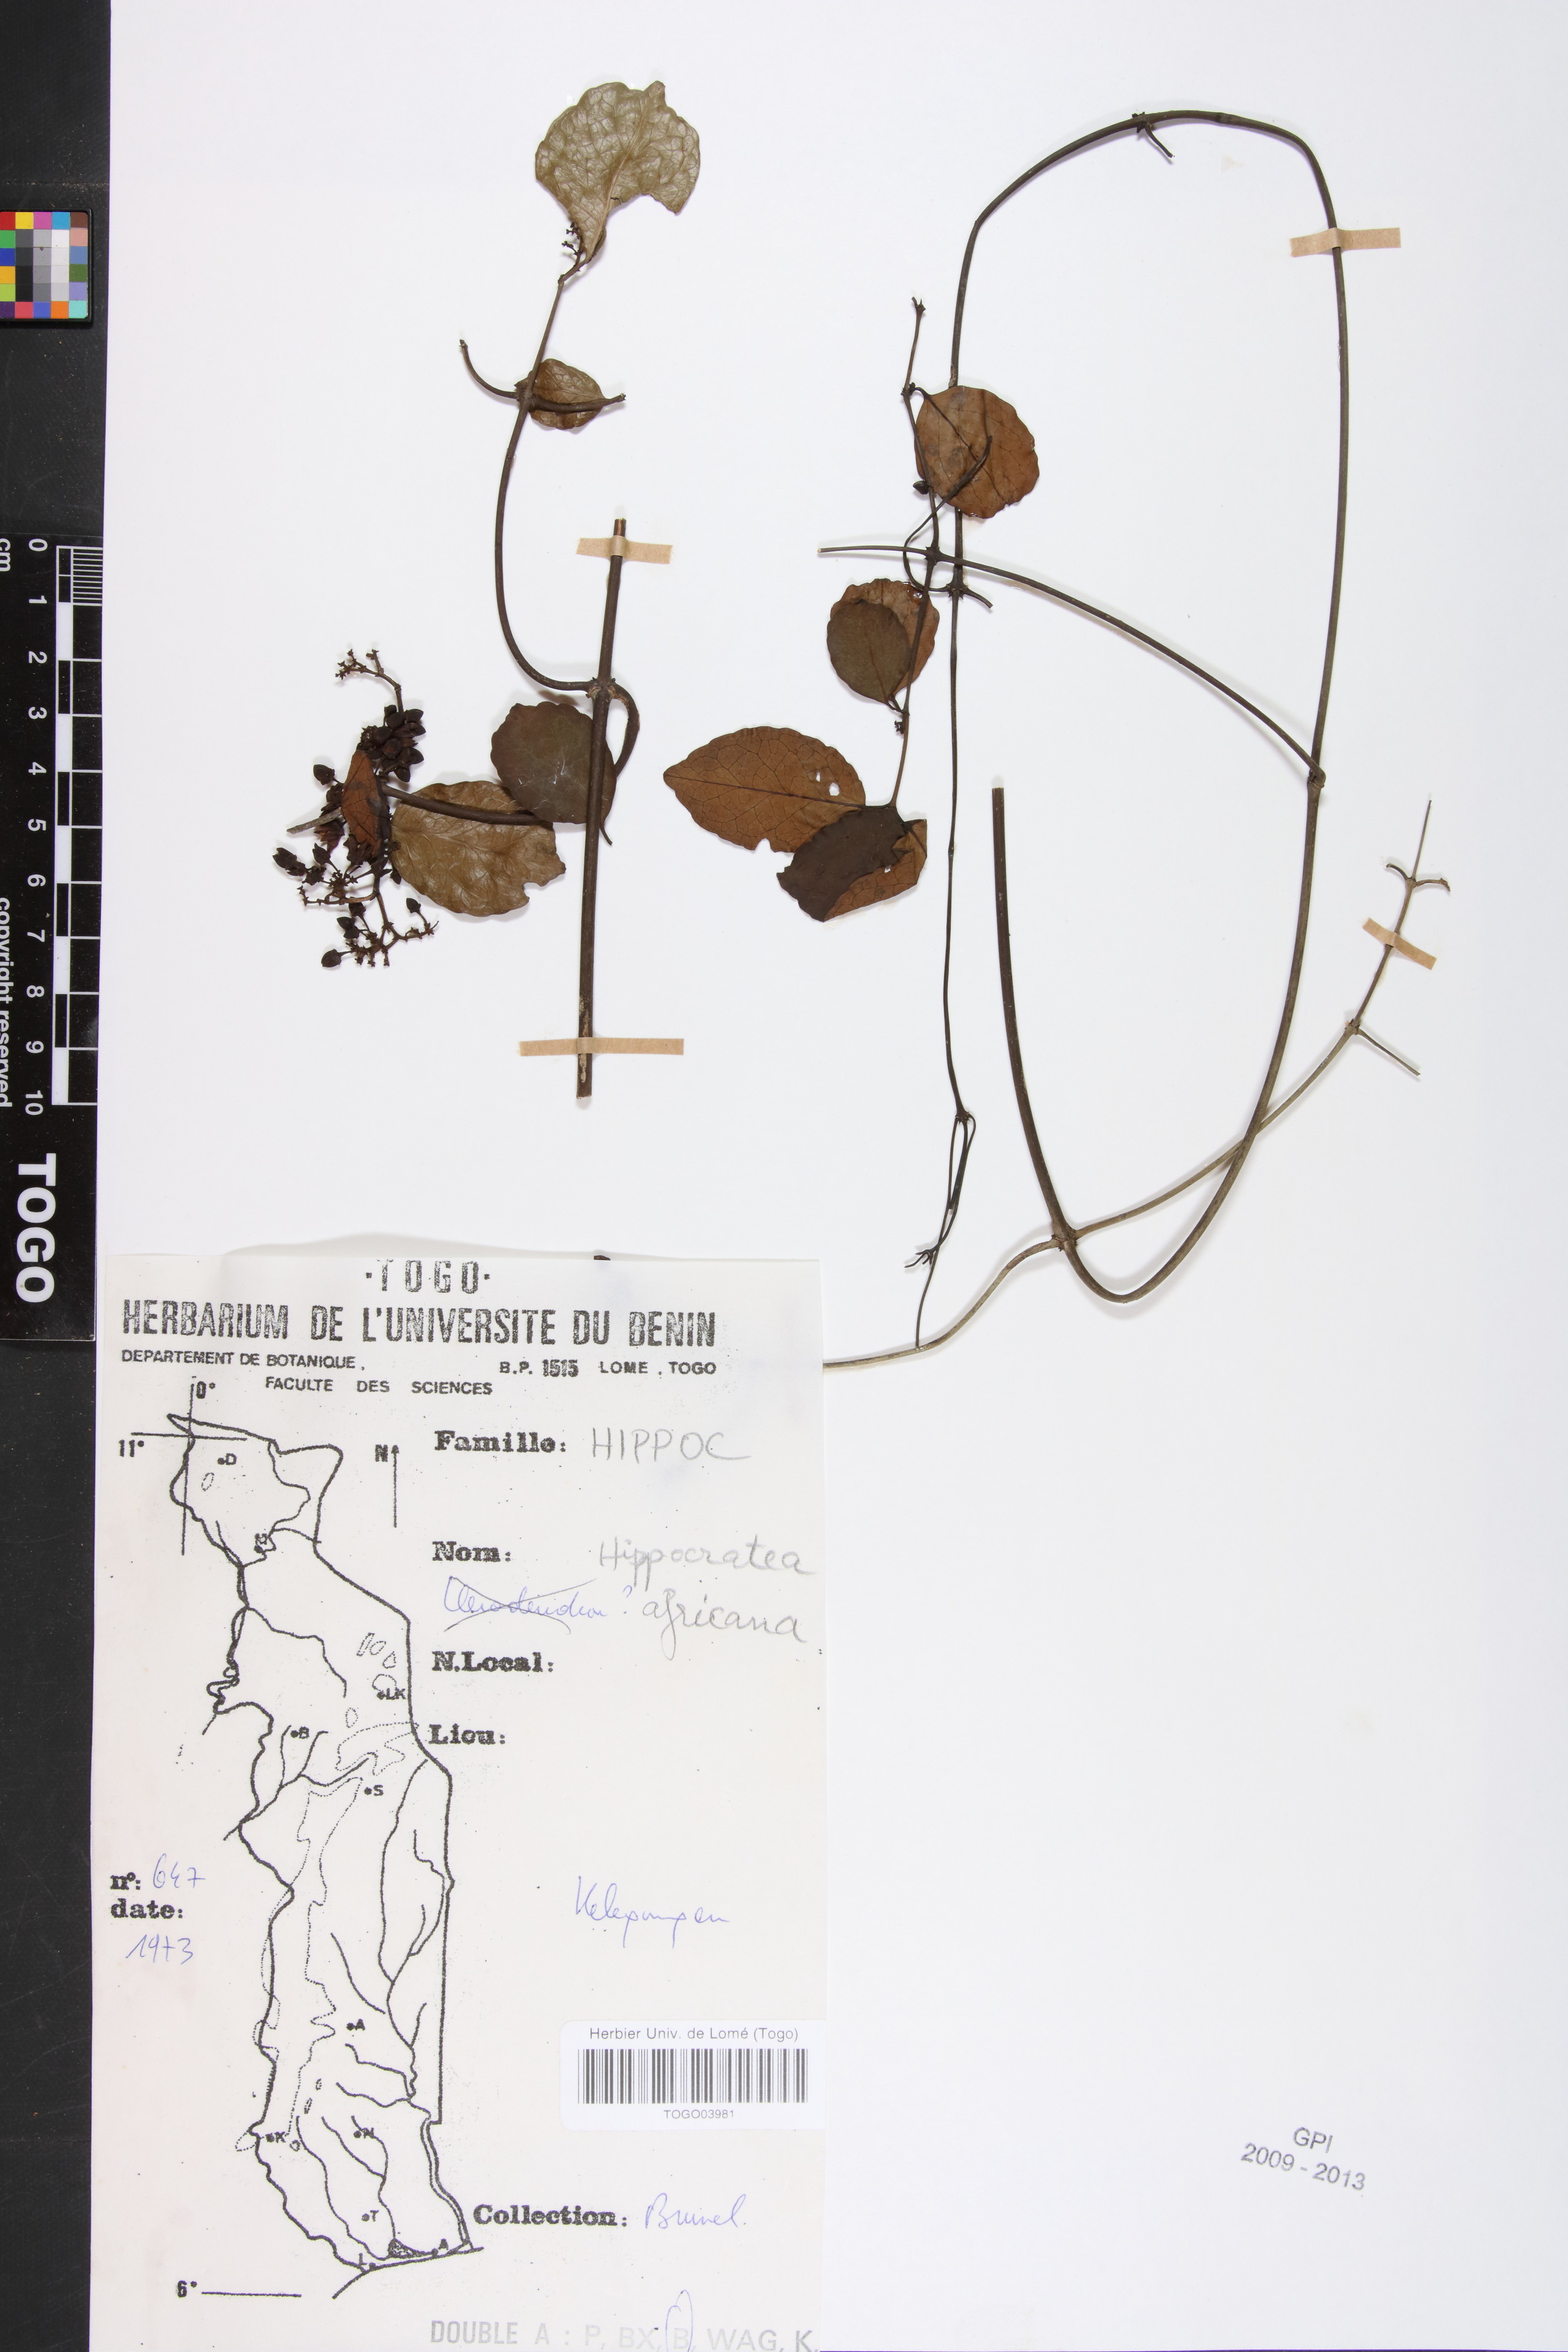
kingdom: Plantae
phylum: Tracheophyta
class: Magnoliopsida
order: Celastrales
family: Celastraceae
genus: Loeseneriella
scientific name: Loeseneriella africana
